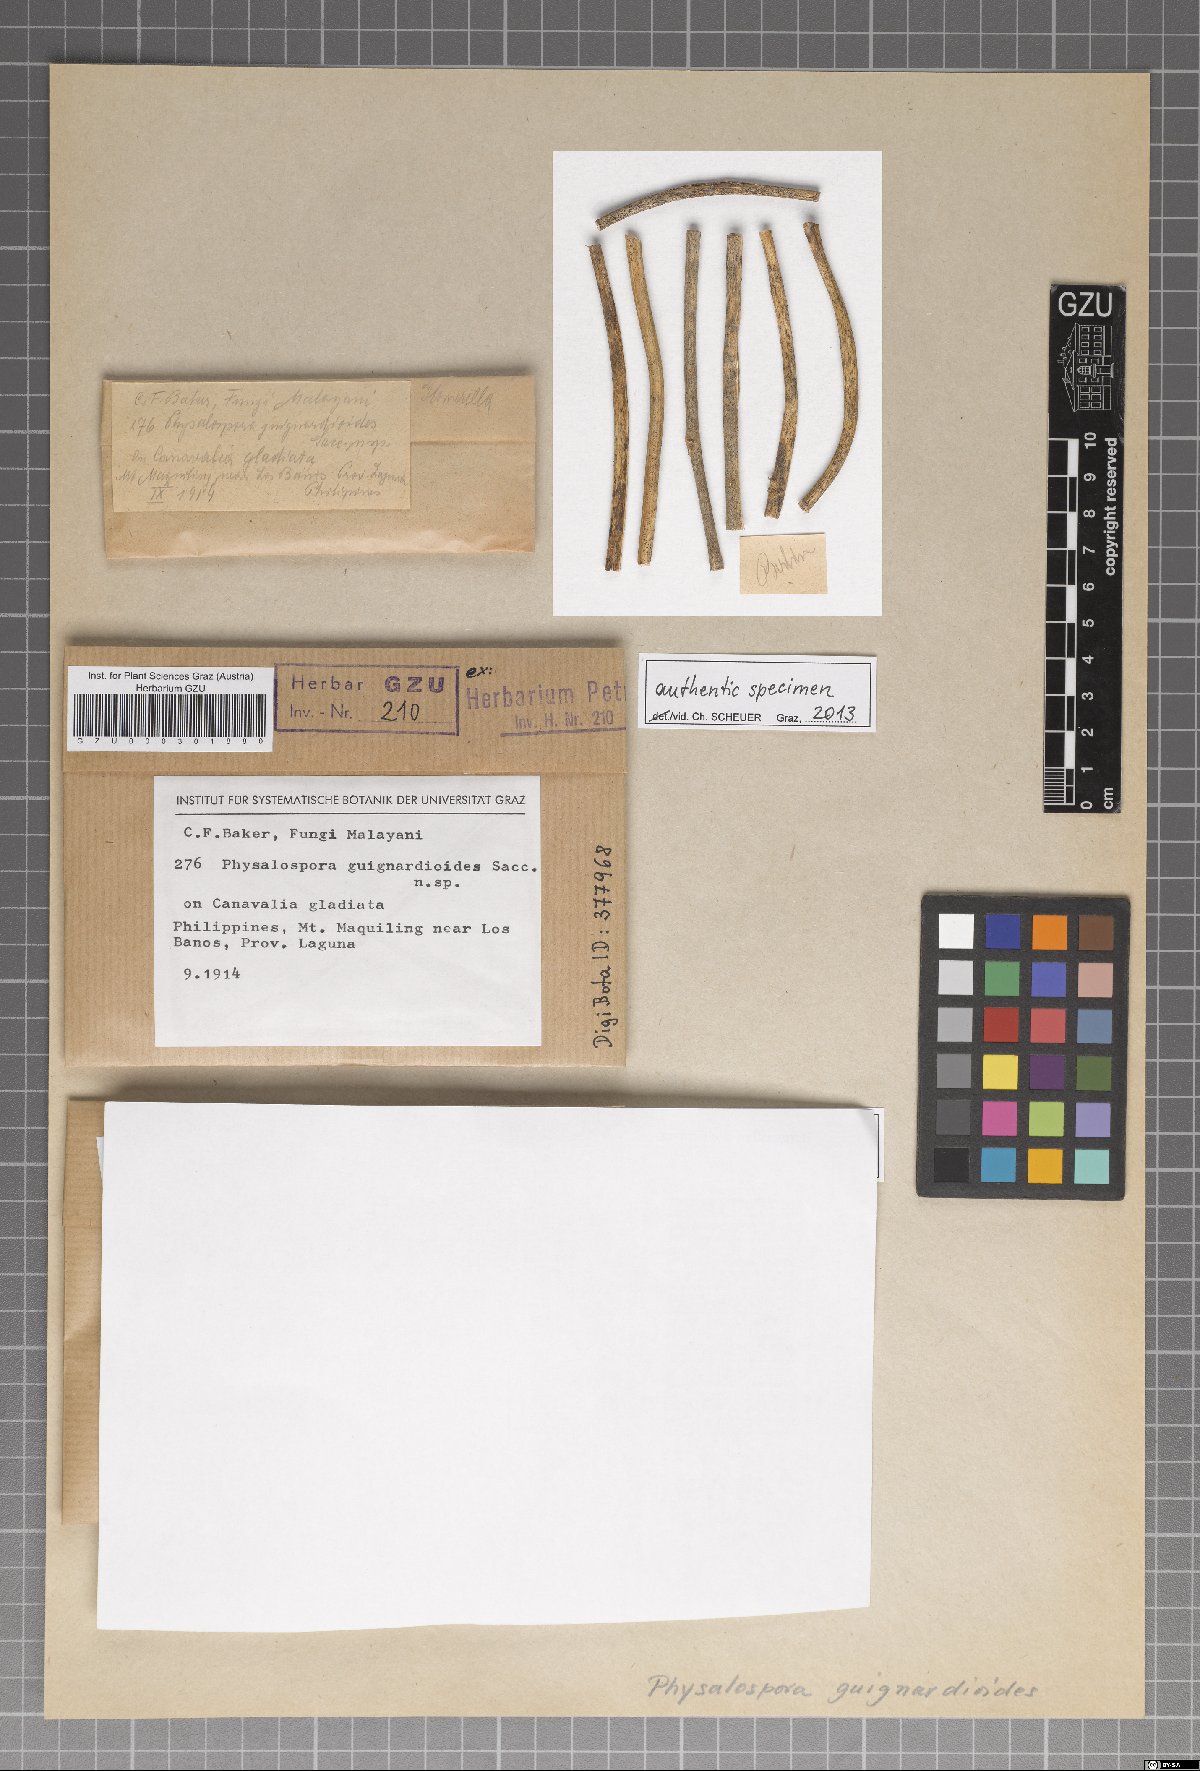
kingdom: Fungi
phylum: Ascomycota
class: Sordariomycetes
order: Xylariales
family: Hyponectriaceae
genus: Physalospora
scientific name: Physalospora guignardioides
